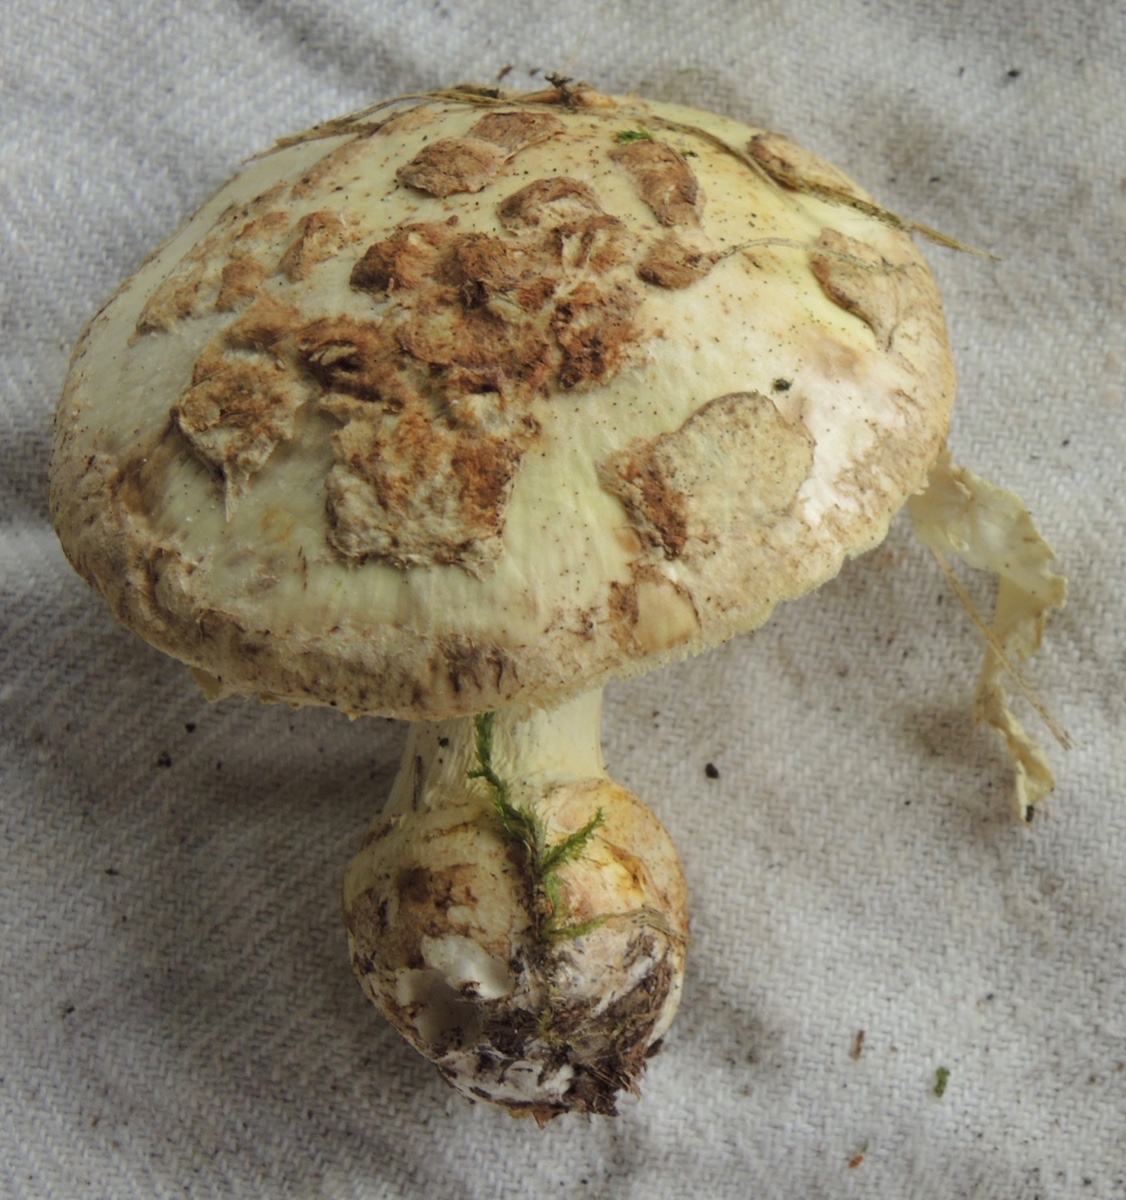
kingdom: Fungi
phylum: Basidiomycota
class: Agaricomycetes
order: Agaricales
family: Amanitaceae
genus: Amanita
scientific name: Amanita citrina
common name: kugleknoldet fluesvamp
